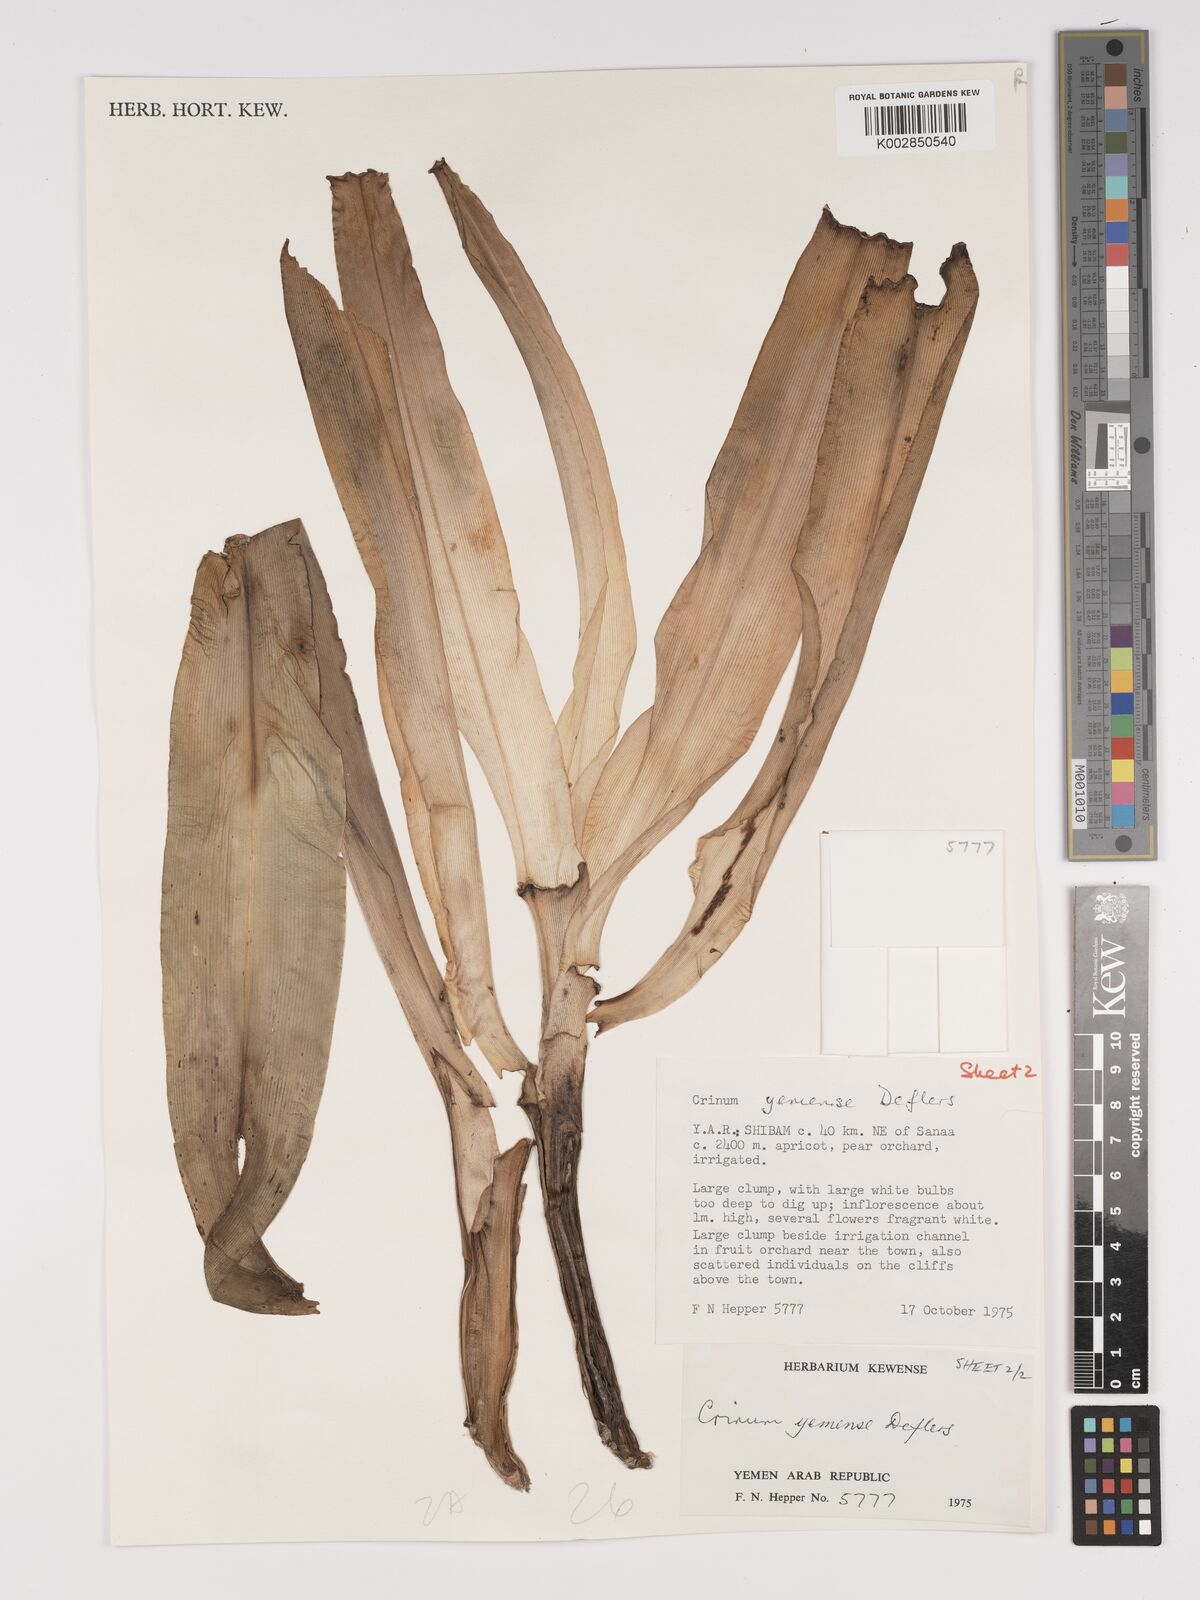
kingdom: Plantae
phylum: Tracheophyta
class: Liliopsida
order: Asparagales
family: Amaryllidaceae
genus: Crinum
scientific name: Crinum album
